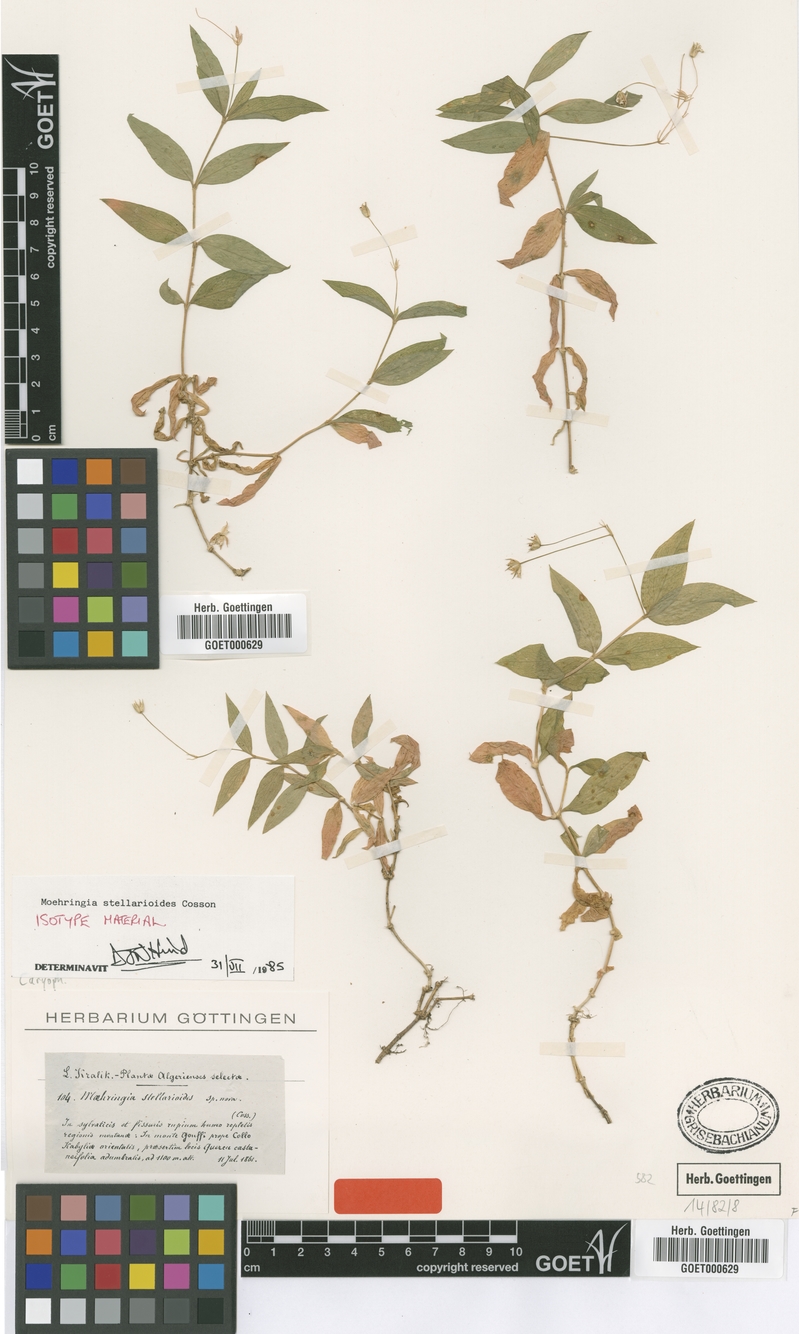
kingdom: Plantae
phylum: Tracheophyta
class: Magnoliopsida
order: Caryophyllales
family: Caryophyllaceae
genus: Moehringia
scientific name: Moehringia stellarioides
